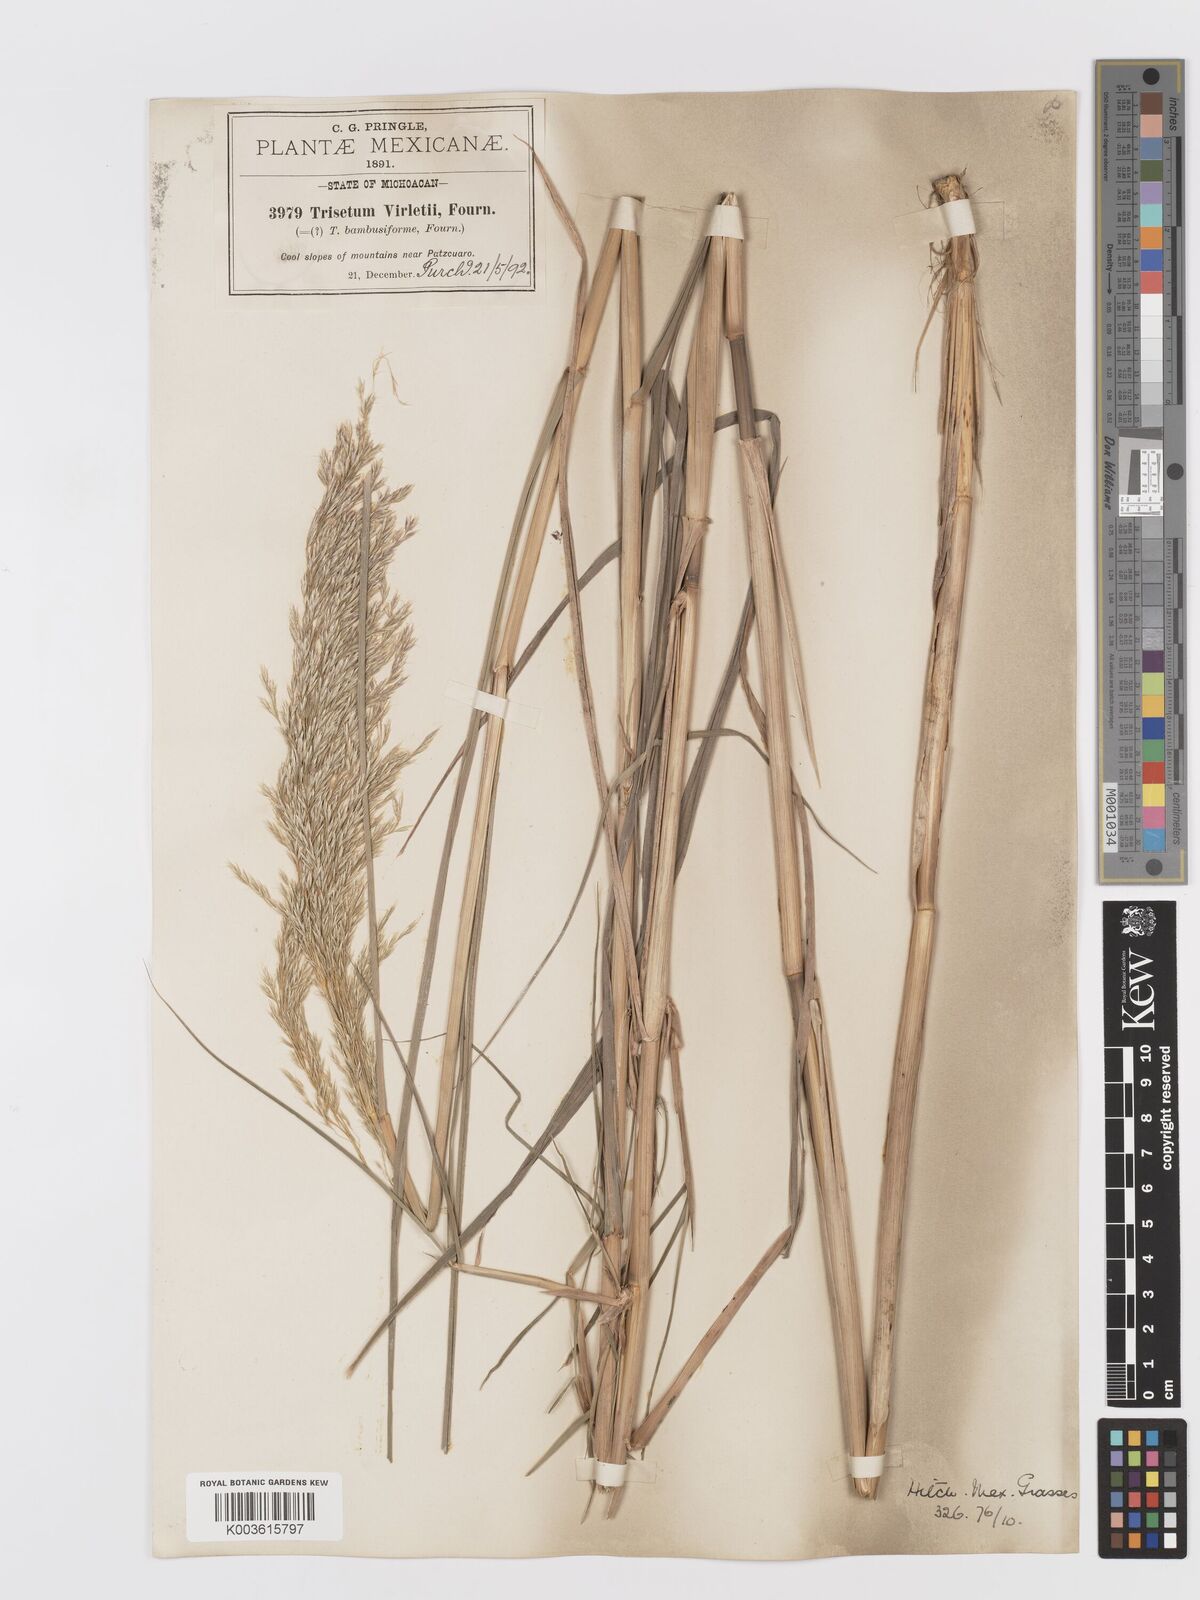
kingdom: Plantae
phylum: Tracheophyta
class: Liliopsida
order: Poales
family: Poaceae
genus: Peyritschia
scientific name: Peyritschia virletii
